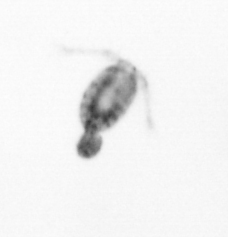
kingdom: Animalia
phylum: Arthropoda
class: Copepoda
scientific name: Copepoda
